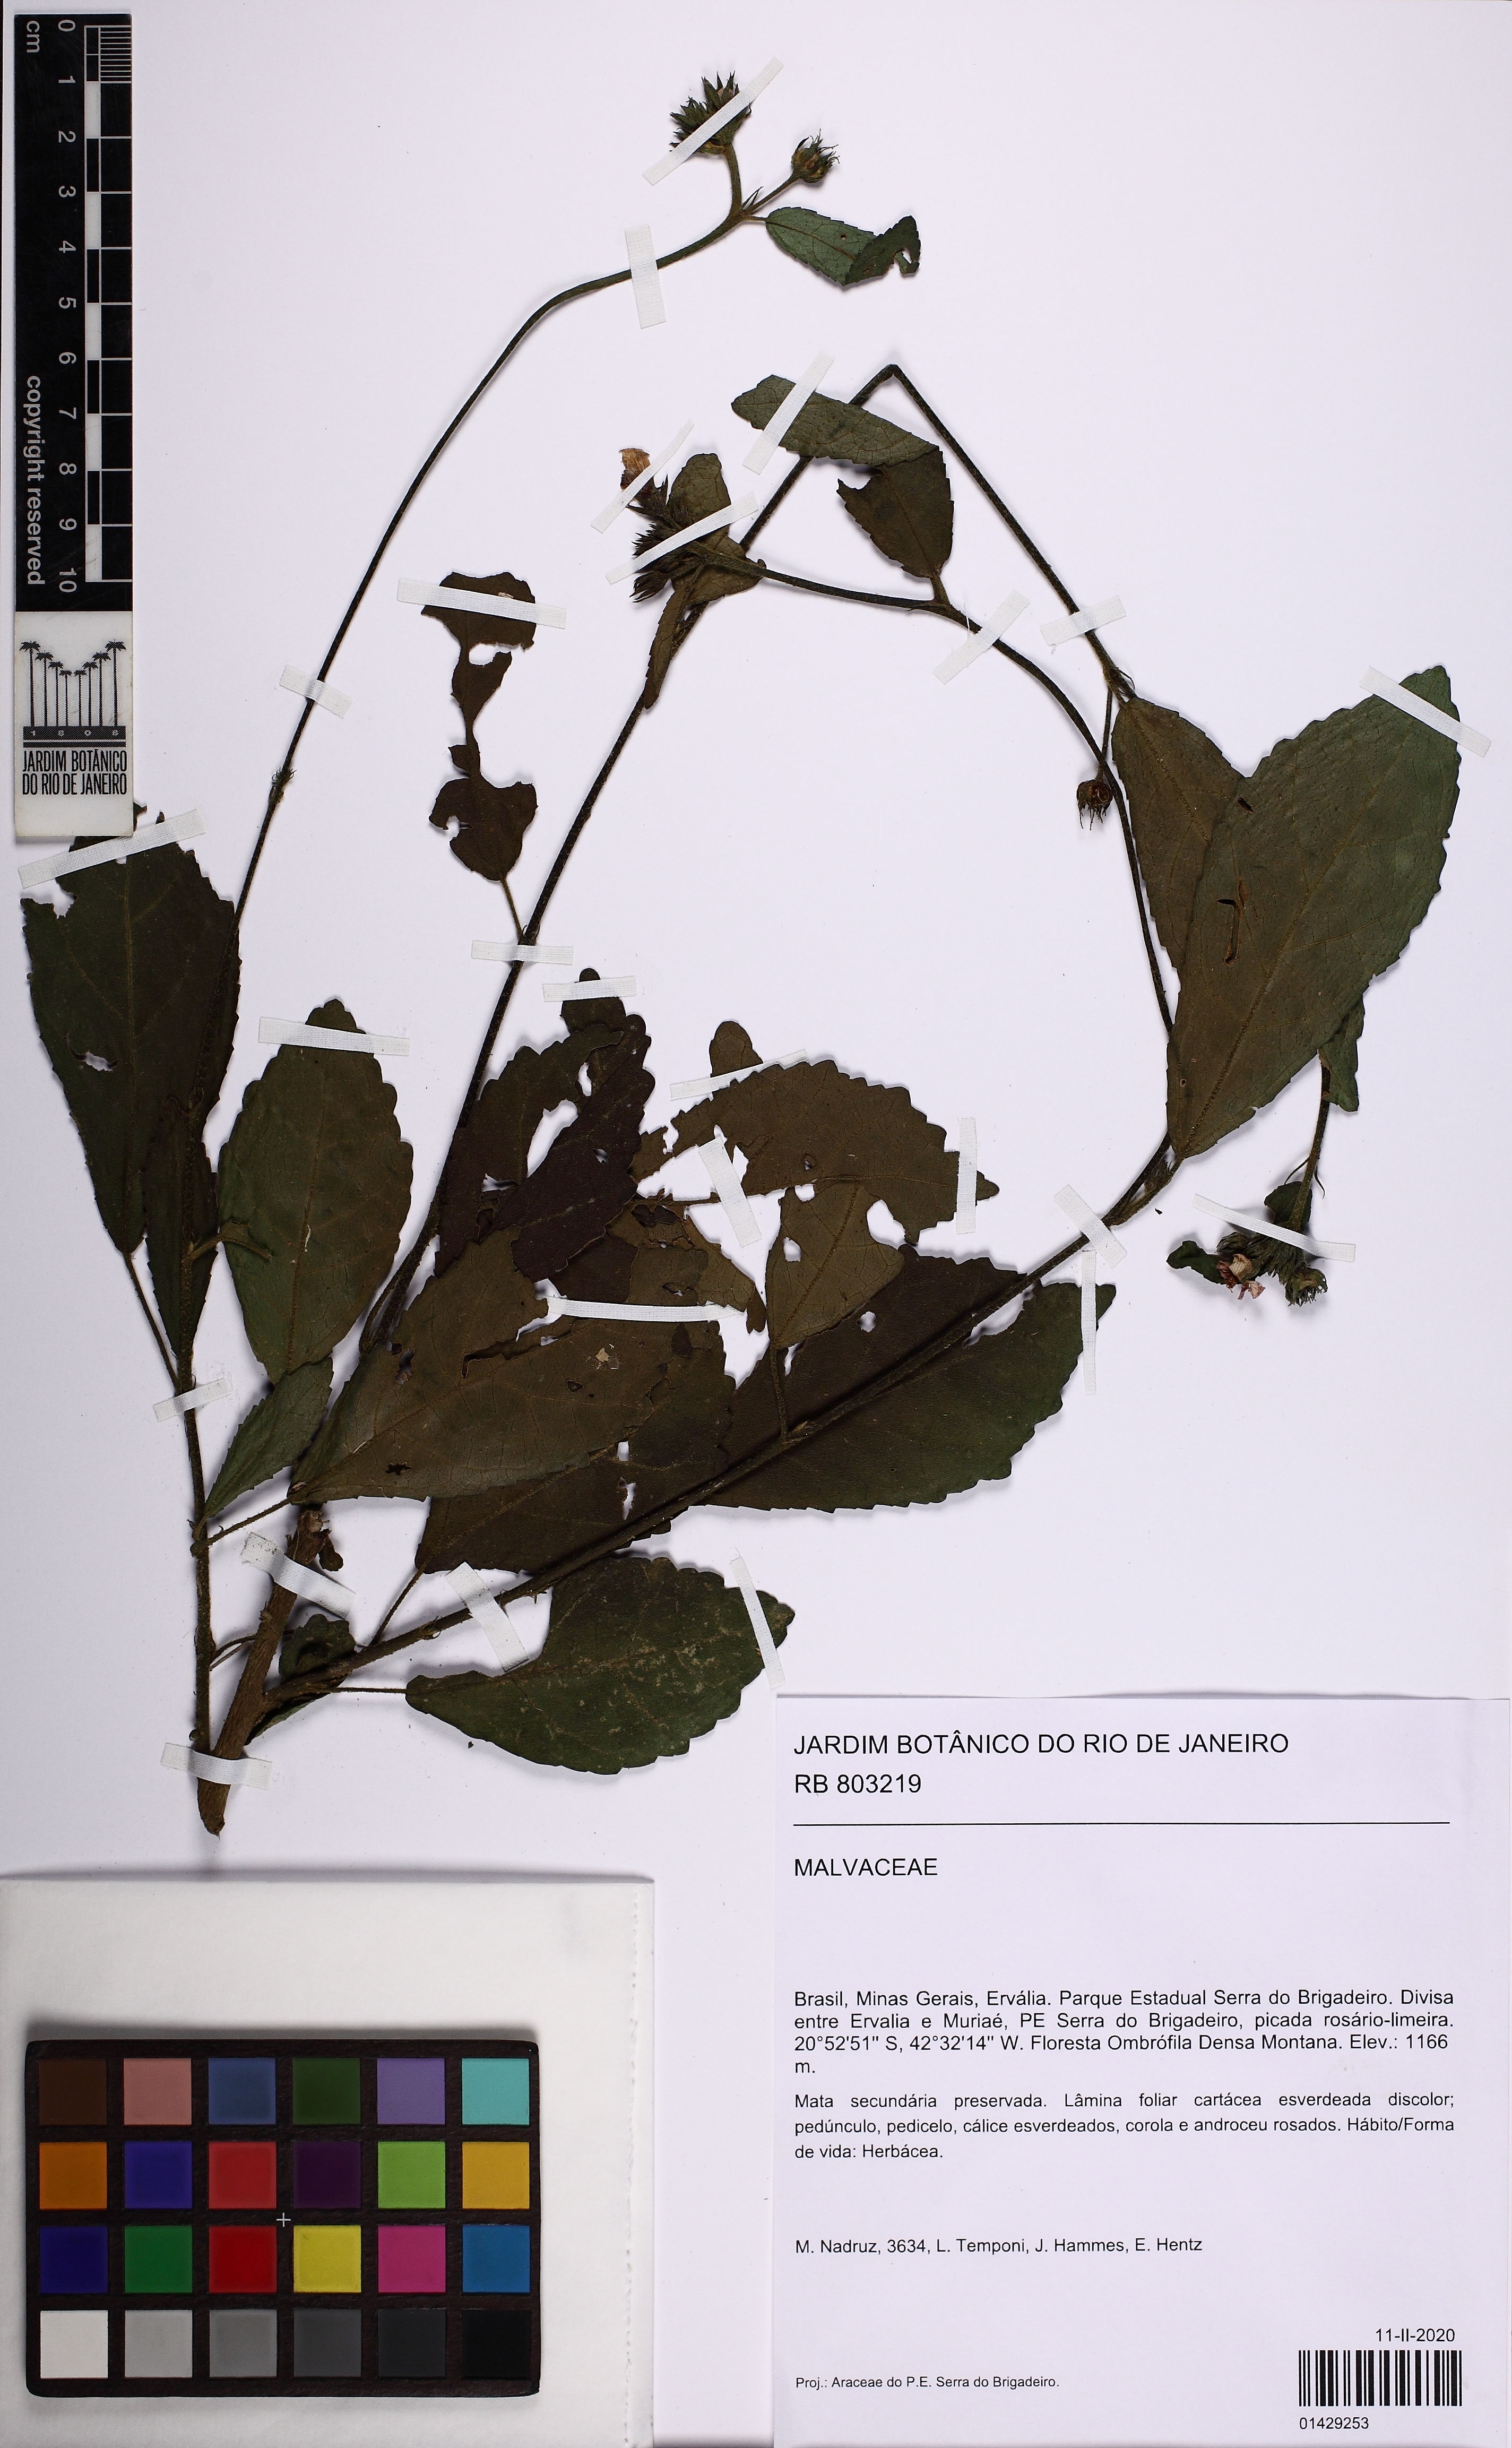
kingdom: Plantae
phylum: Tracheophyta
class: Magnoliopsida
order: Malvales
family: Malvaceae
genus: Pavonia
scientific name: Pavonia castaneifolia
